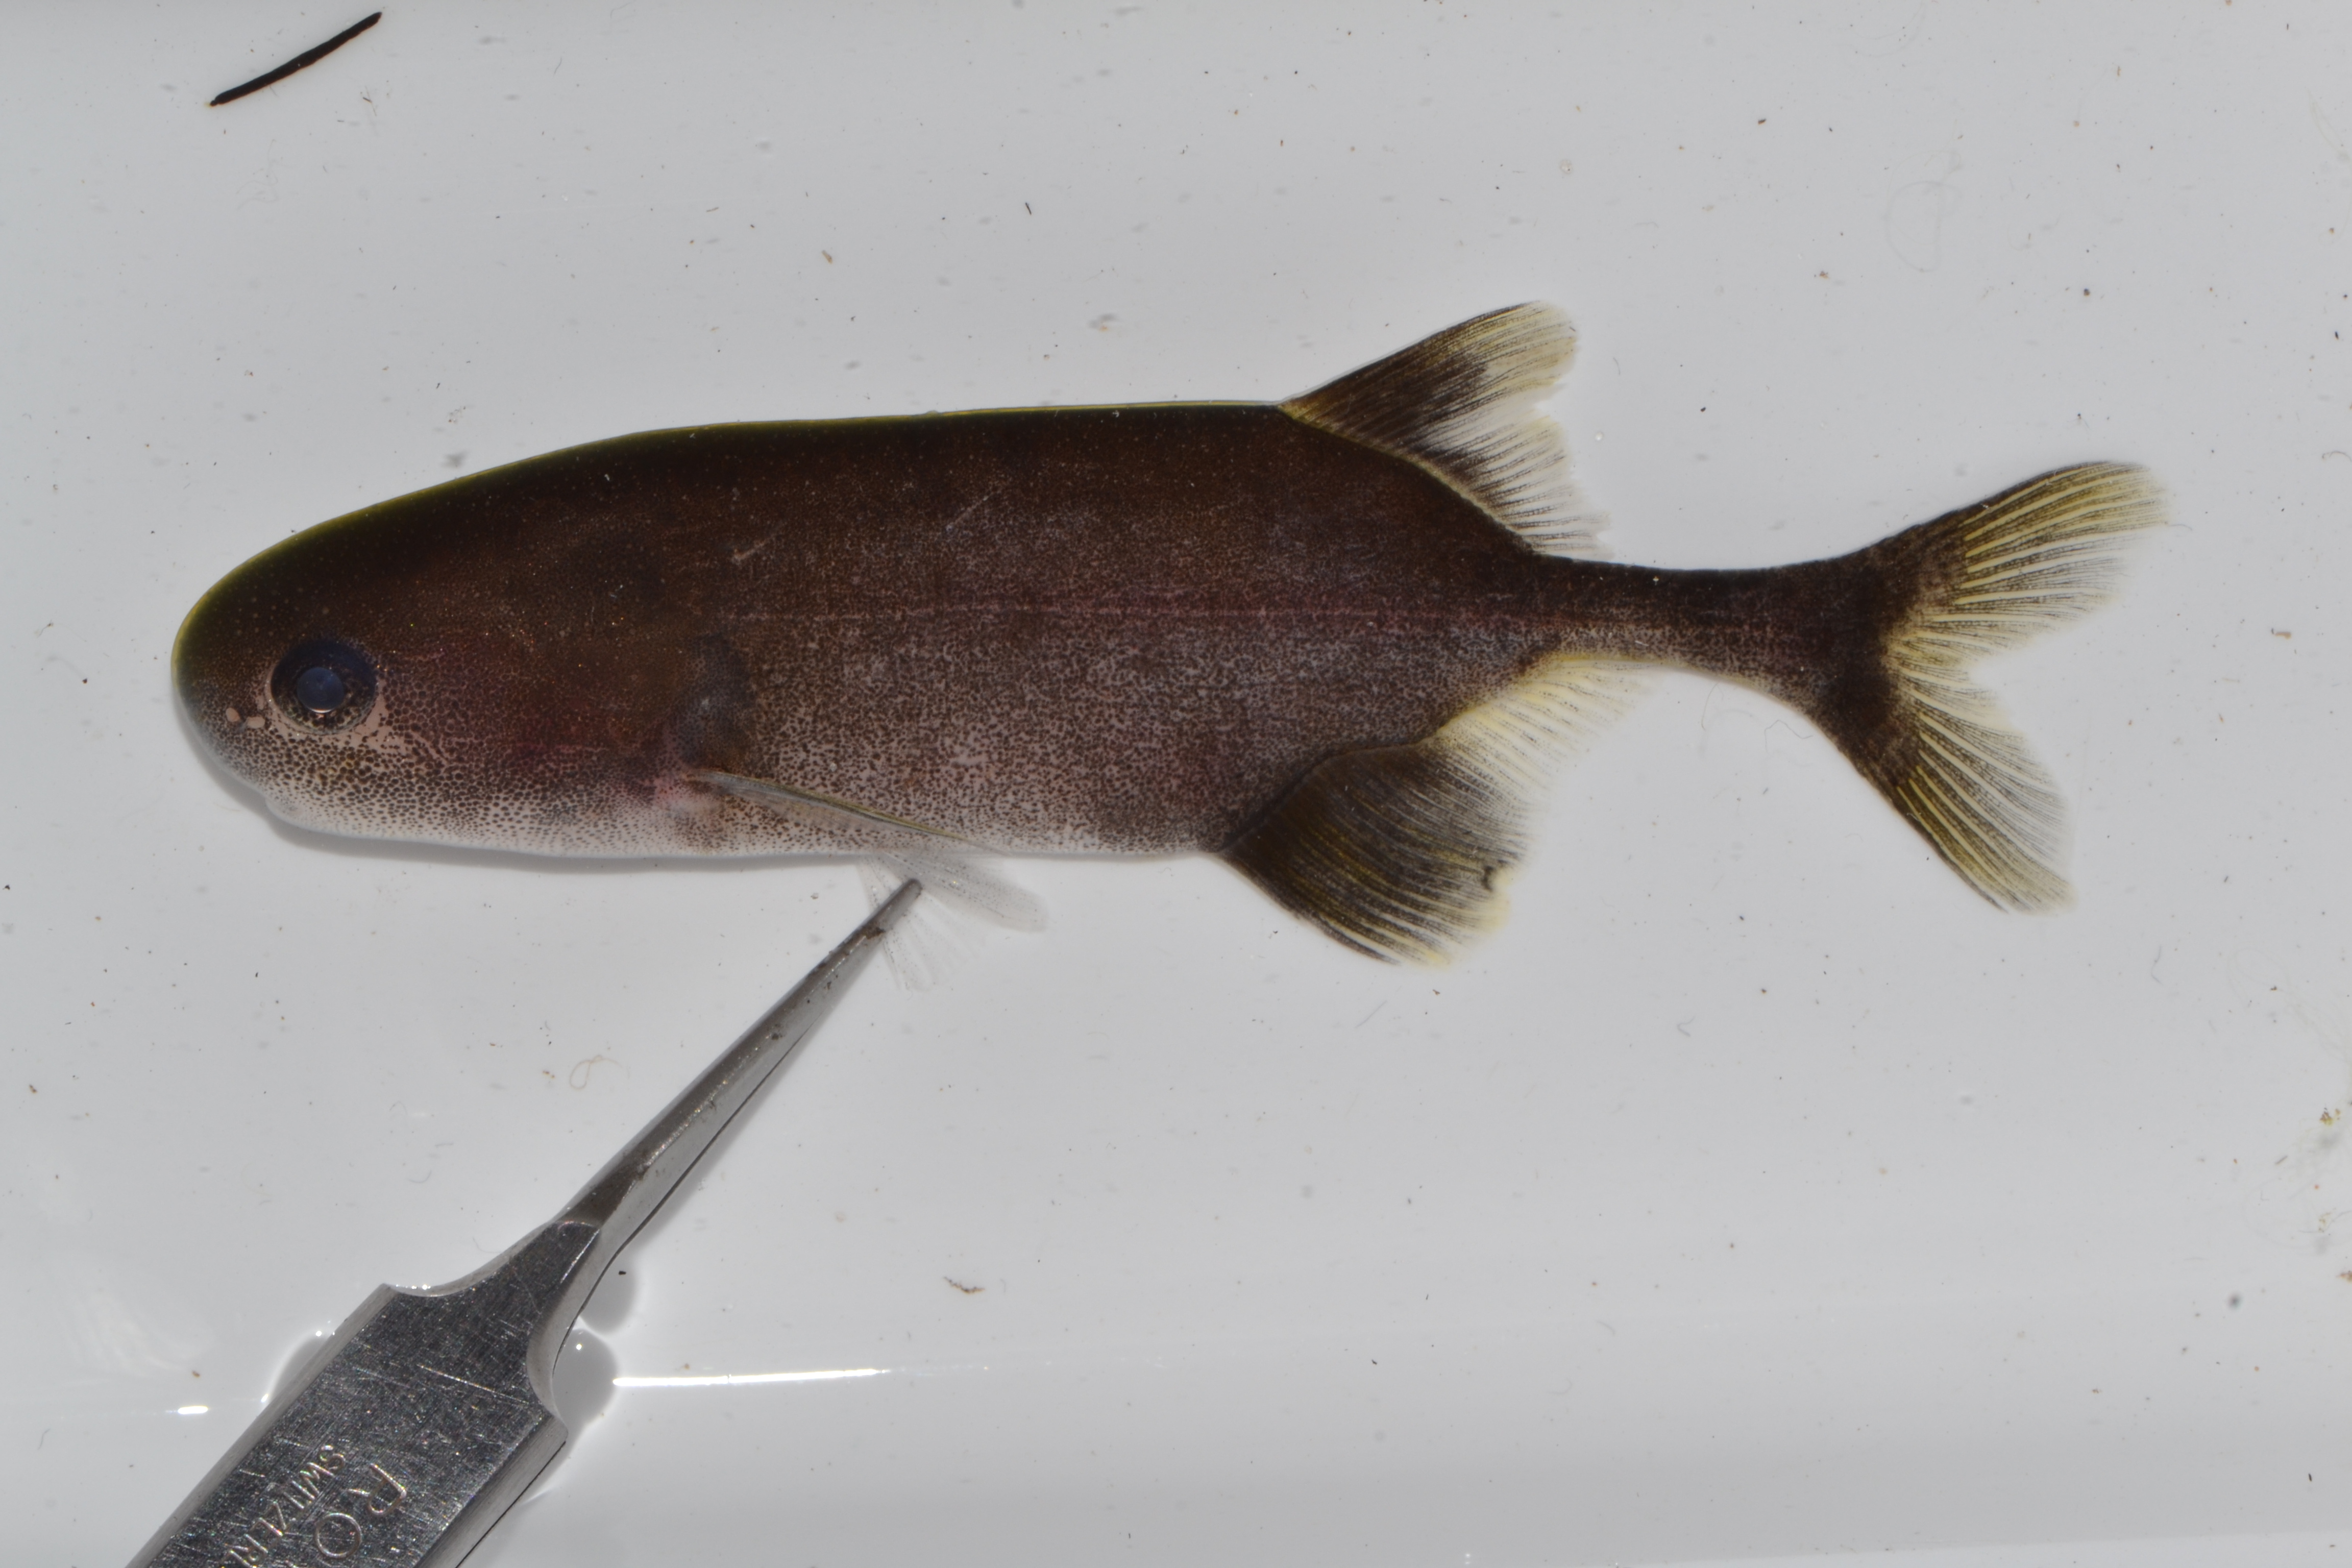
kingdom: Animalia
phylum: Chordata
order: Osteoglossiformes
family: Mormyridae
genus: Pollimyrus
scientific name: Pollimyrus
